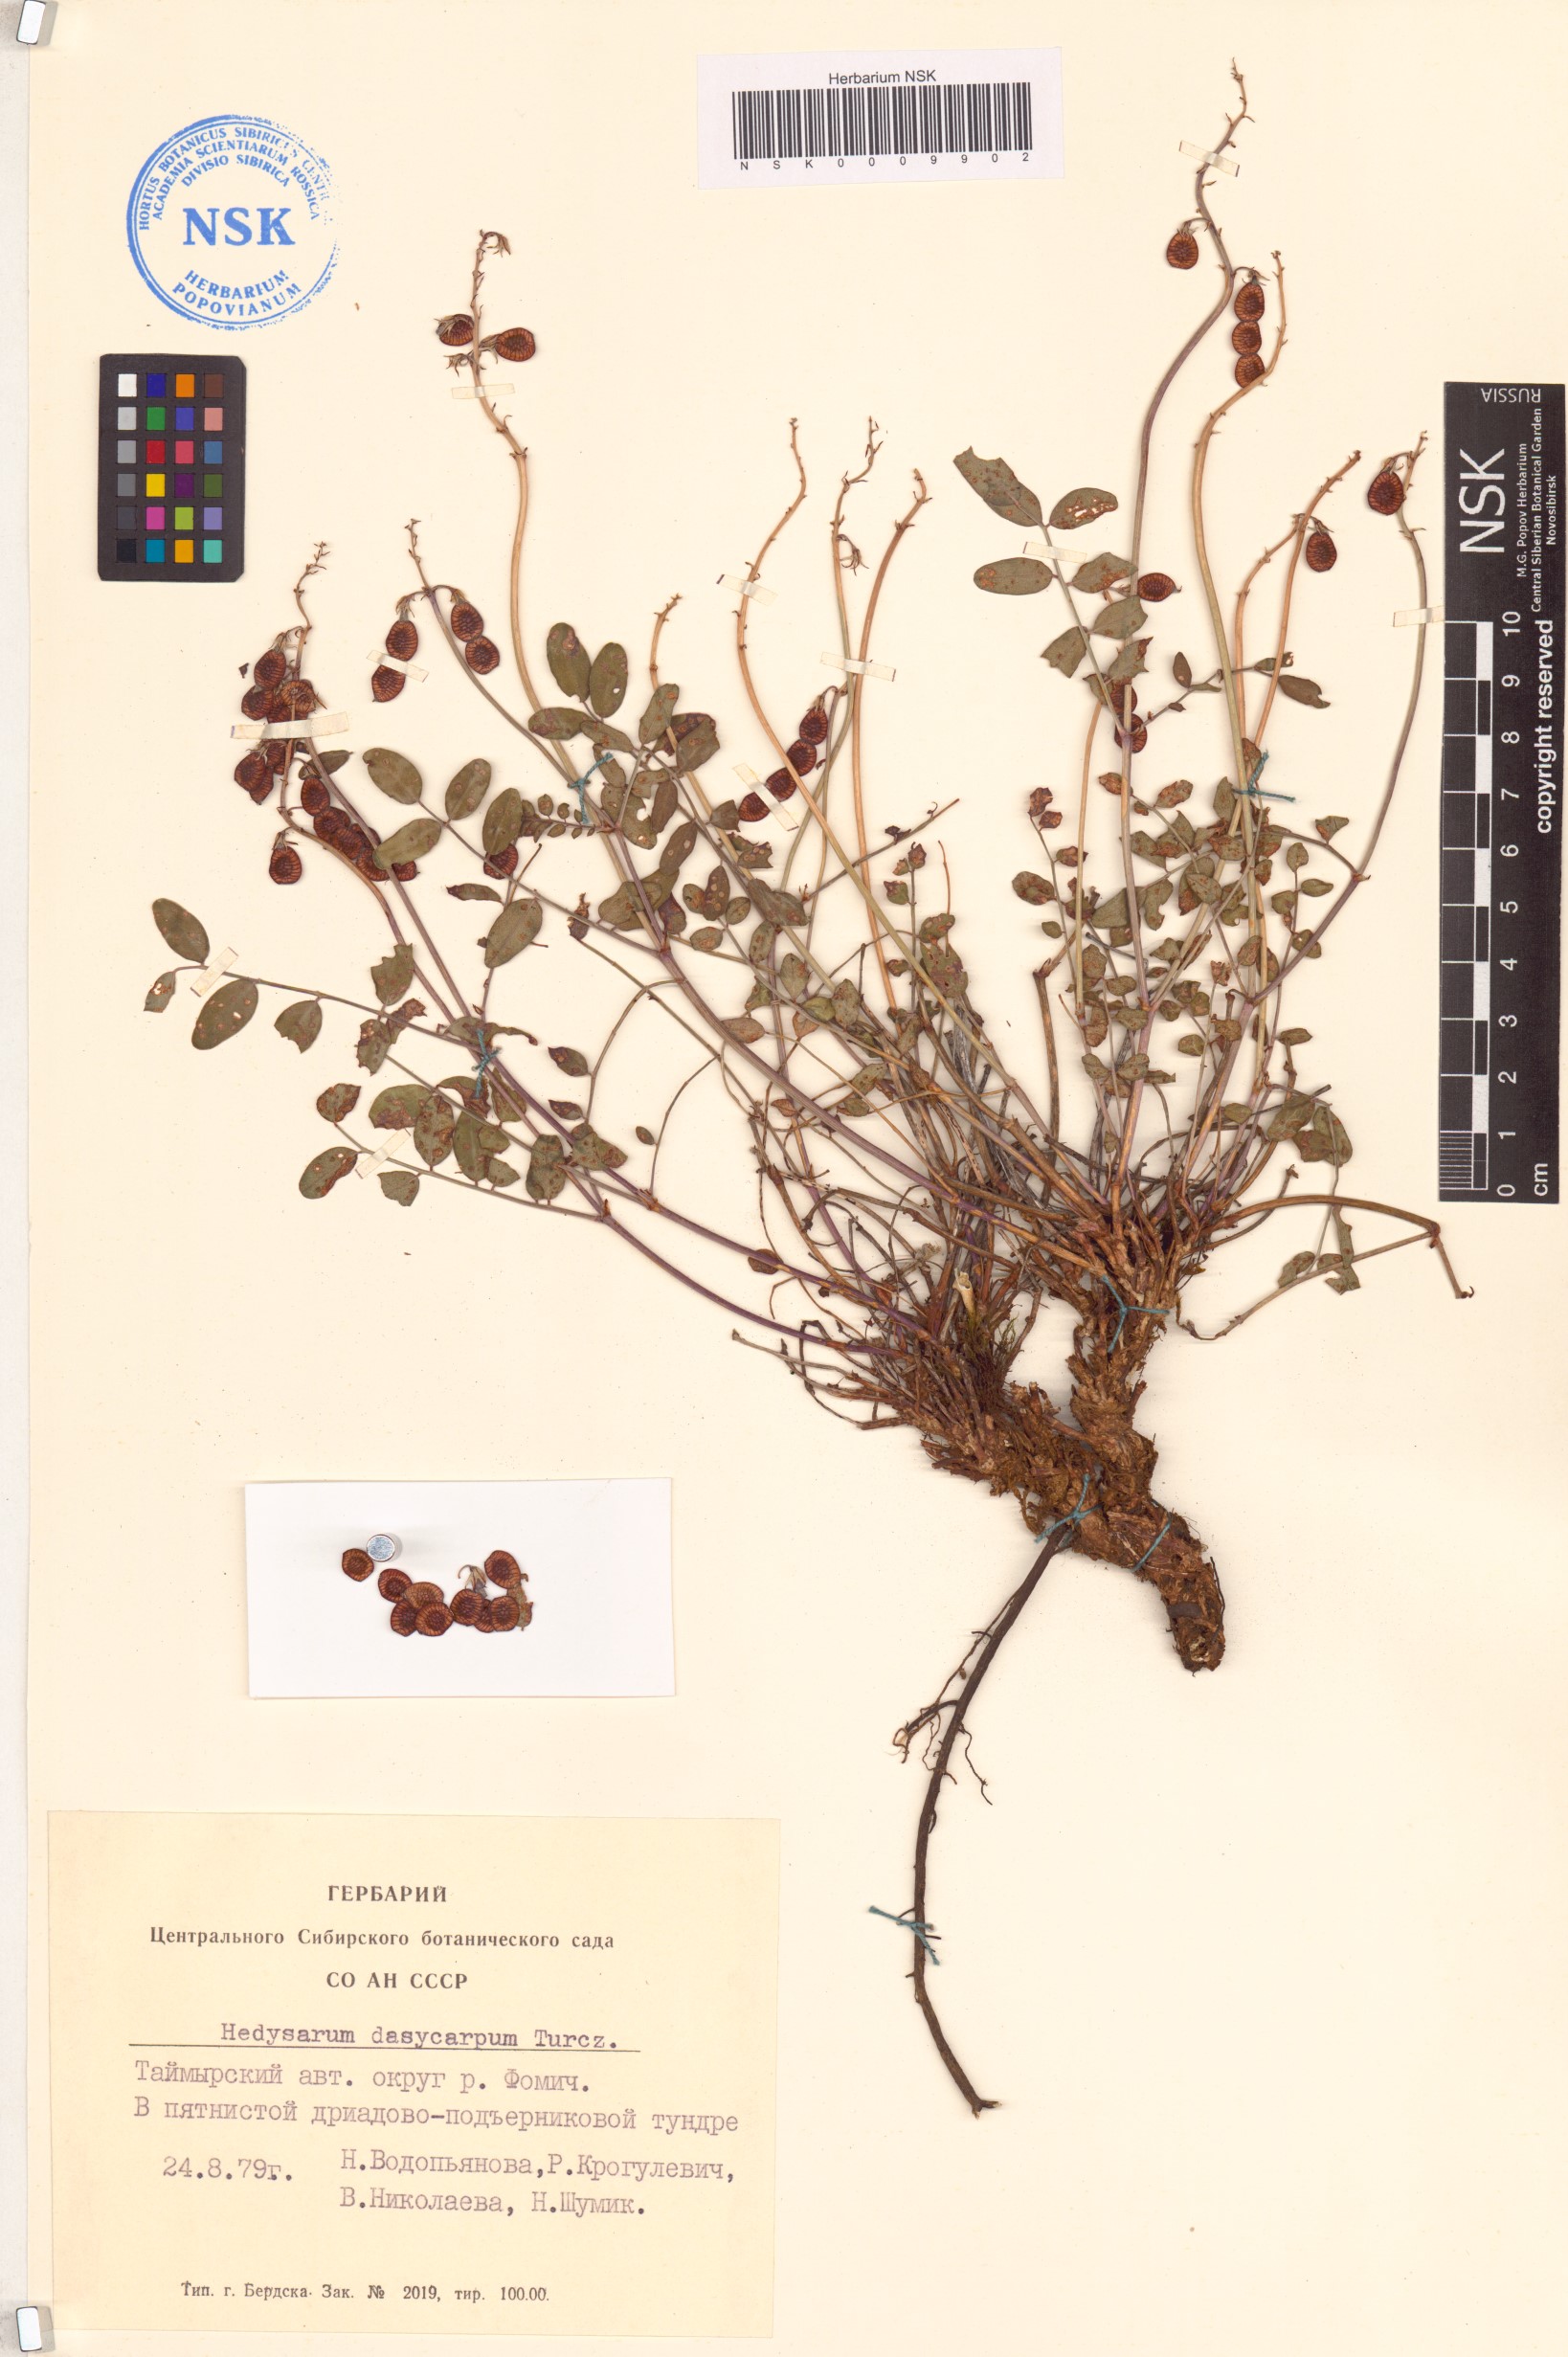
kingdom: Plantae
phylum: Tracheophyta
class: Magnoliopsida
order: Fabales
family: Fabaceae
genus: Hedysarum
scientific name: Hedysarum dasycarpum
